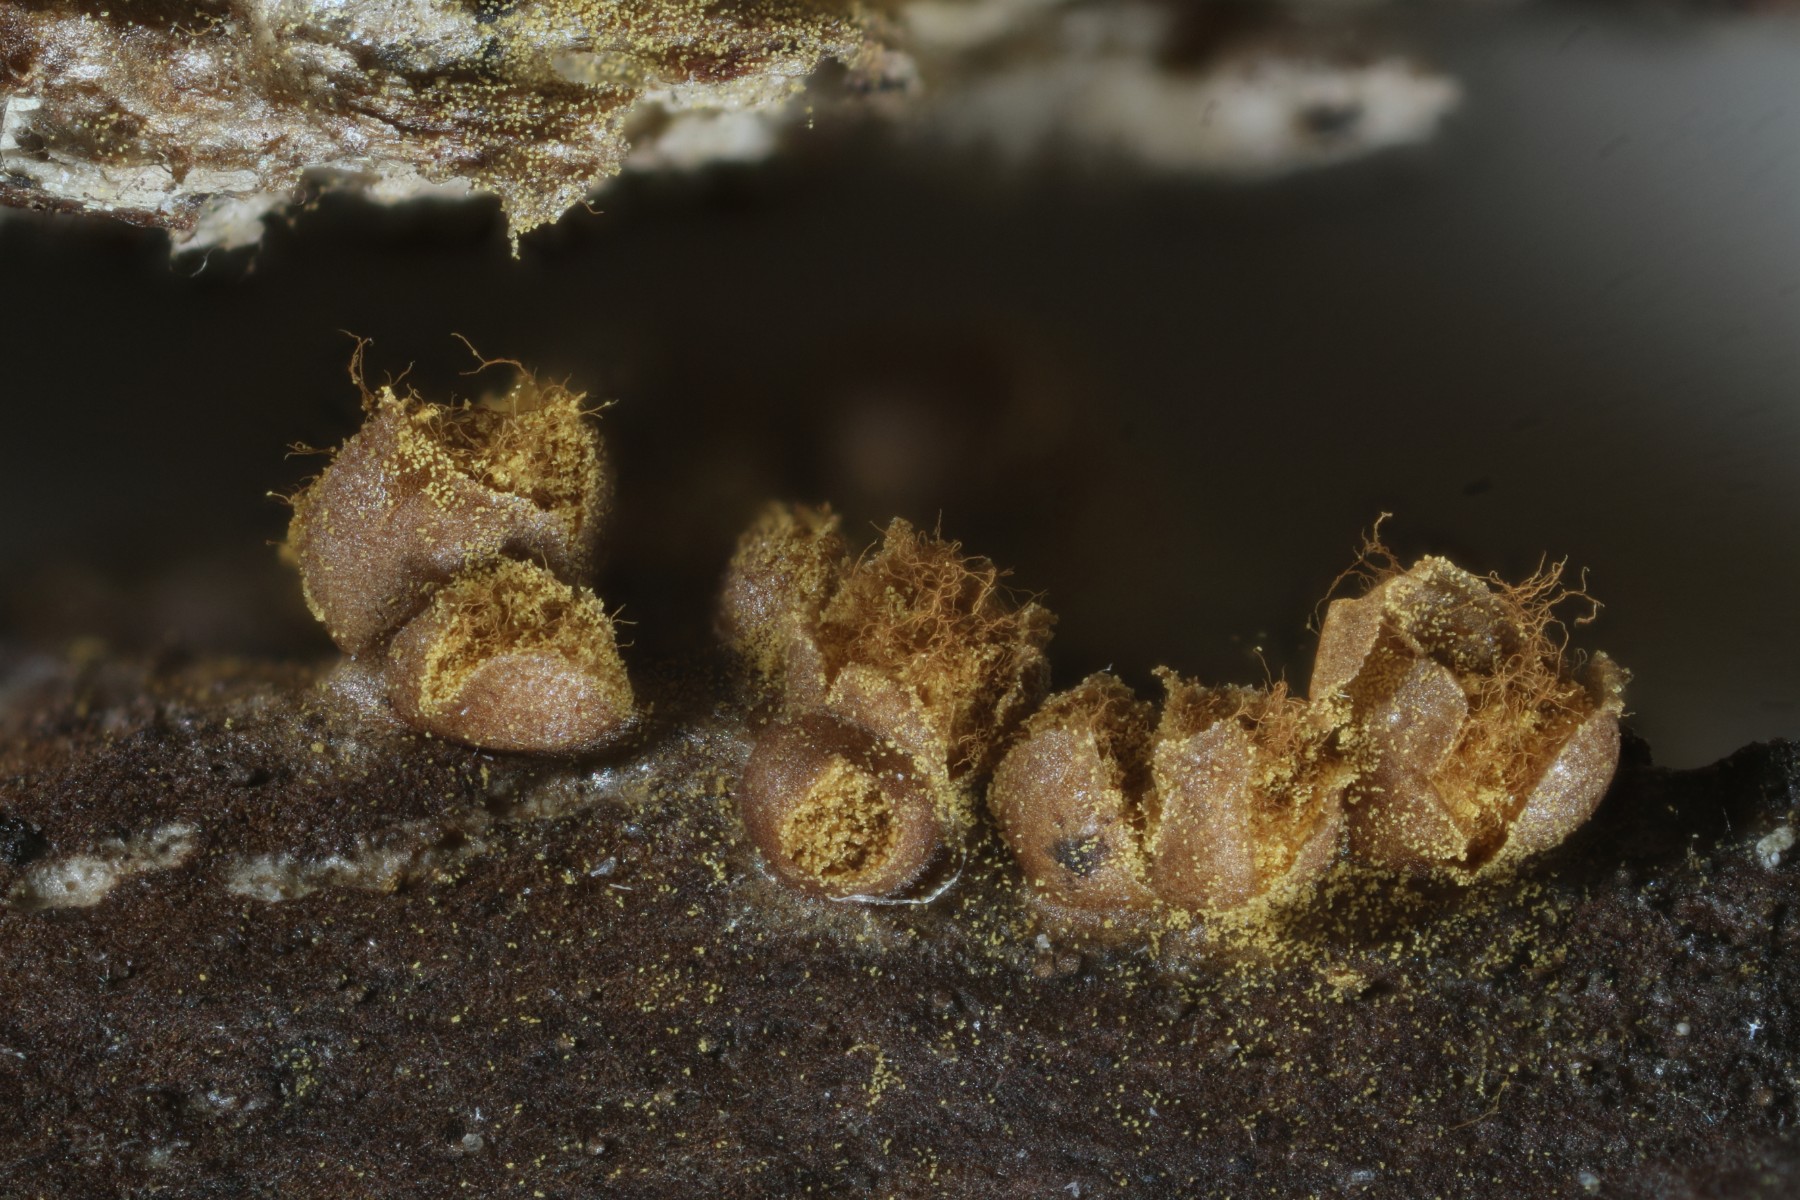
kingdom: Protozoa
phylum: Mycetozoa
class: Myxomycetes
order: Trichiales
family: Trichiaceae
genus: Trichia
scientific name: Trichia contorta
